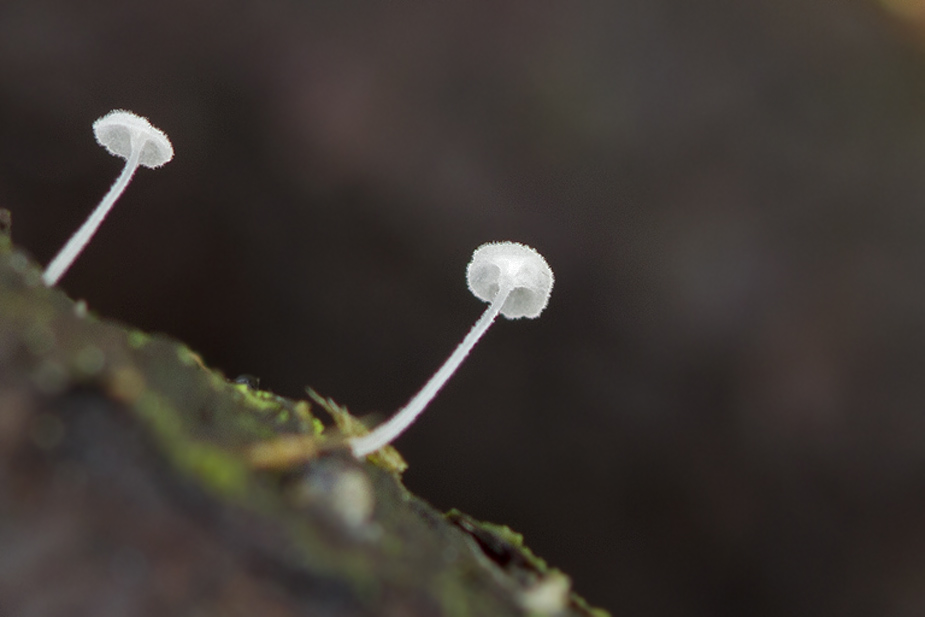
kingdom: Fungi
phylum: Basidiomycota
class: Agaricomycetes
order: Agaricales
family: Mycenaceae
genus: Hemimycena
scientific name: Hemimycena mauretanica
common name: smalsporet huesvamp
